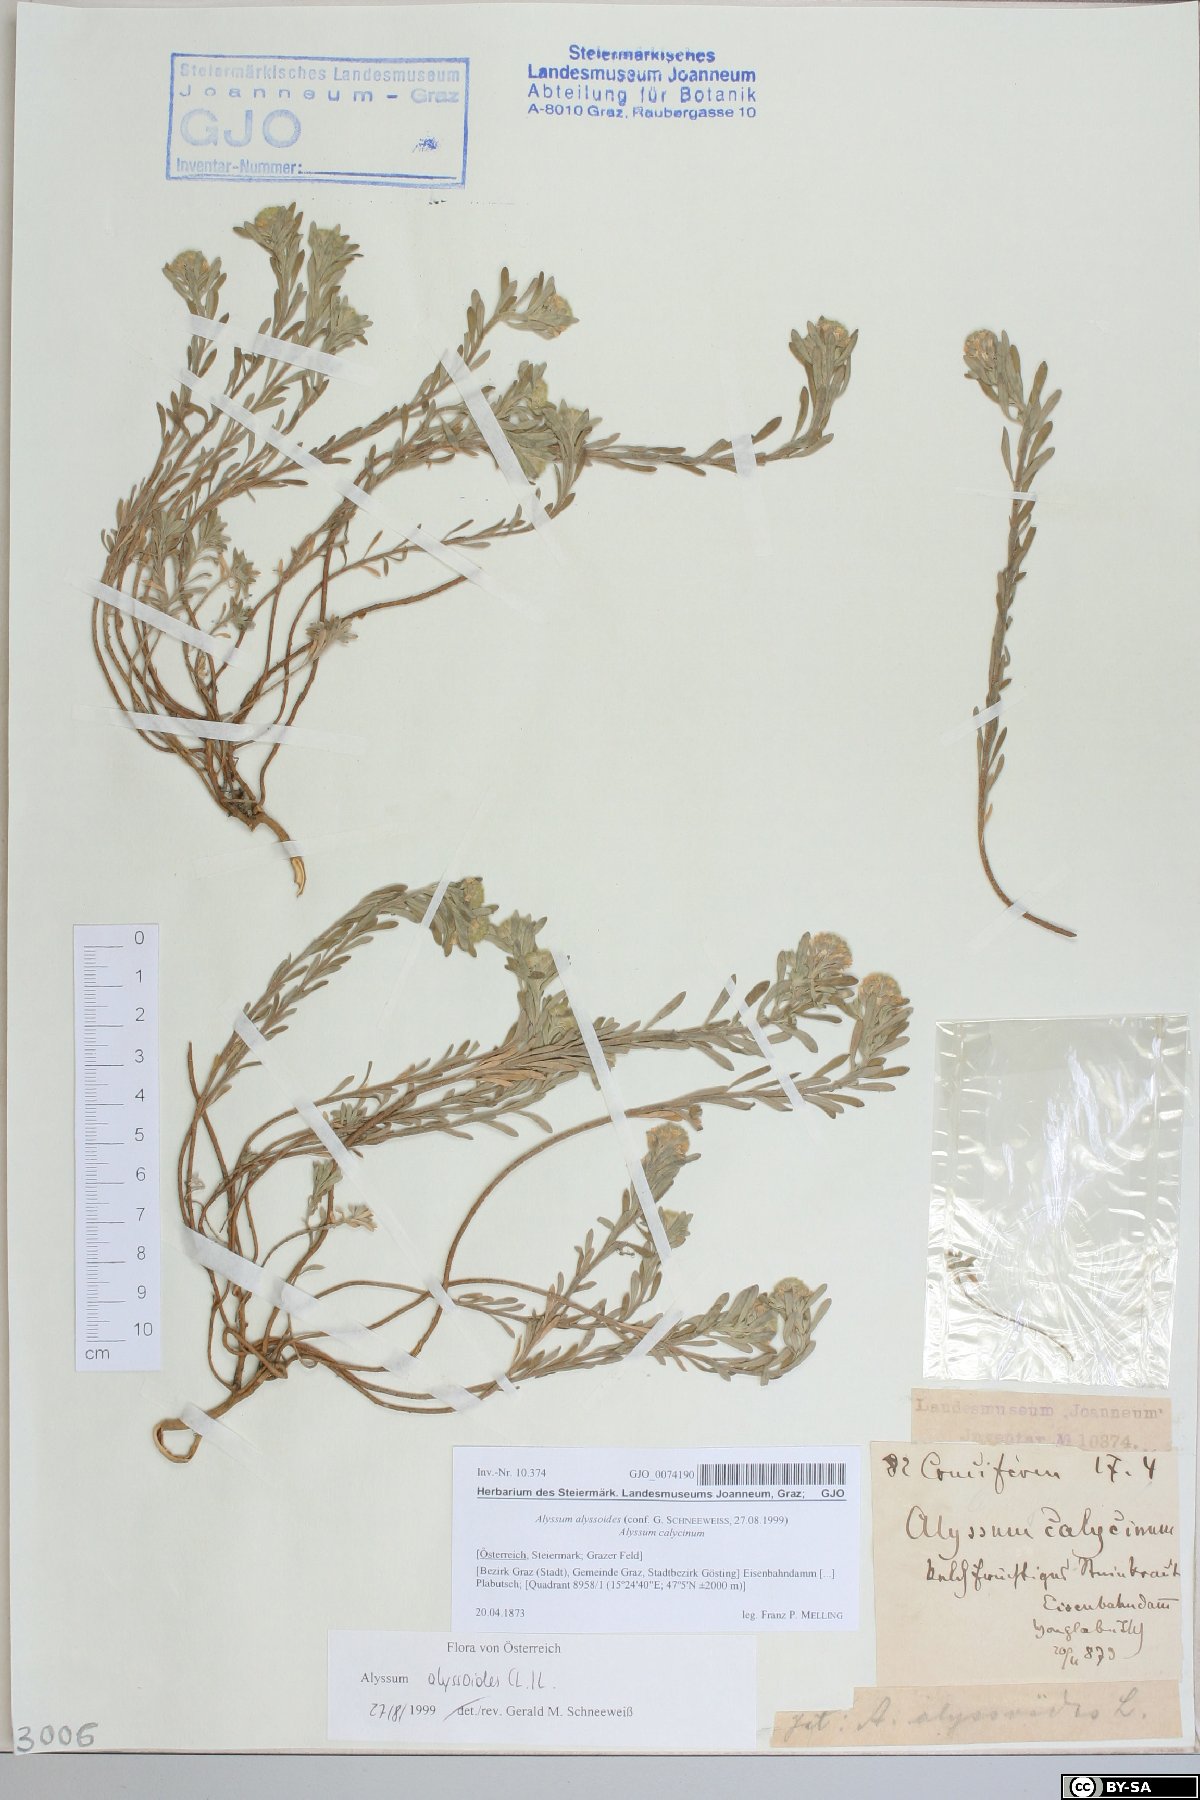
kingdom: Plantae
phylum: Tracheophyta
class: Magnoliopsida
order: Brassicales
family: Brassicaceae
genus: Alyssum
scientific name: Alyssum alyssoides
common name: Small alison
